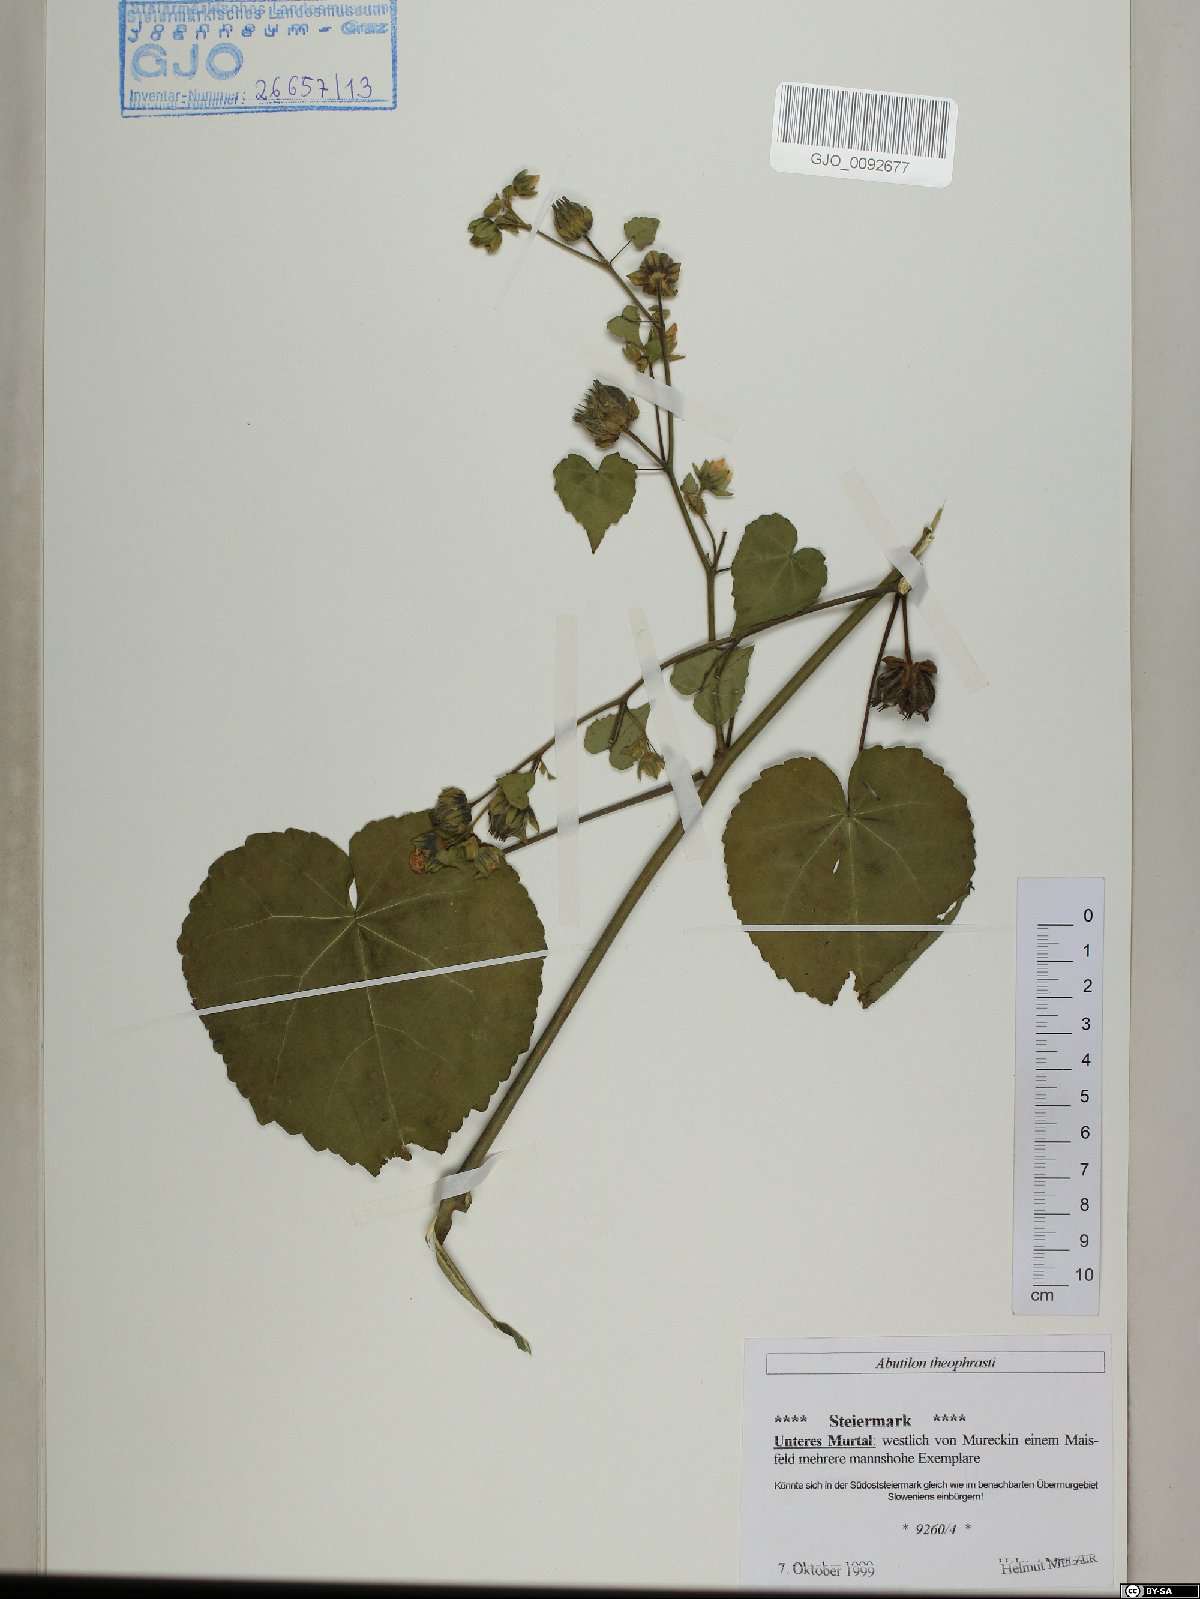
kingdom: Plantae
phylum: Tracheophyta
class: Magnoliopsida
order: Malvales
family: Malvaceae
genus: Abutilon
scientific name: Abutilon theophrasti
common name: Velvetleaf
